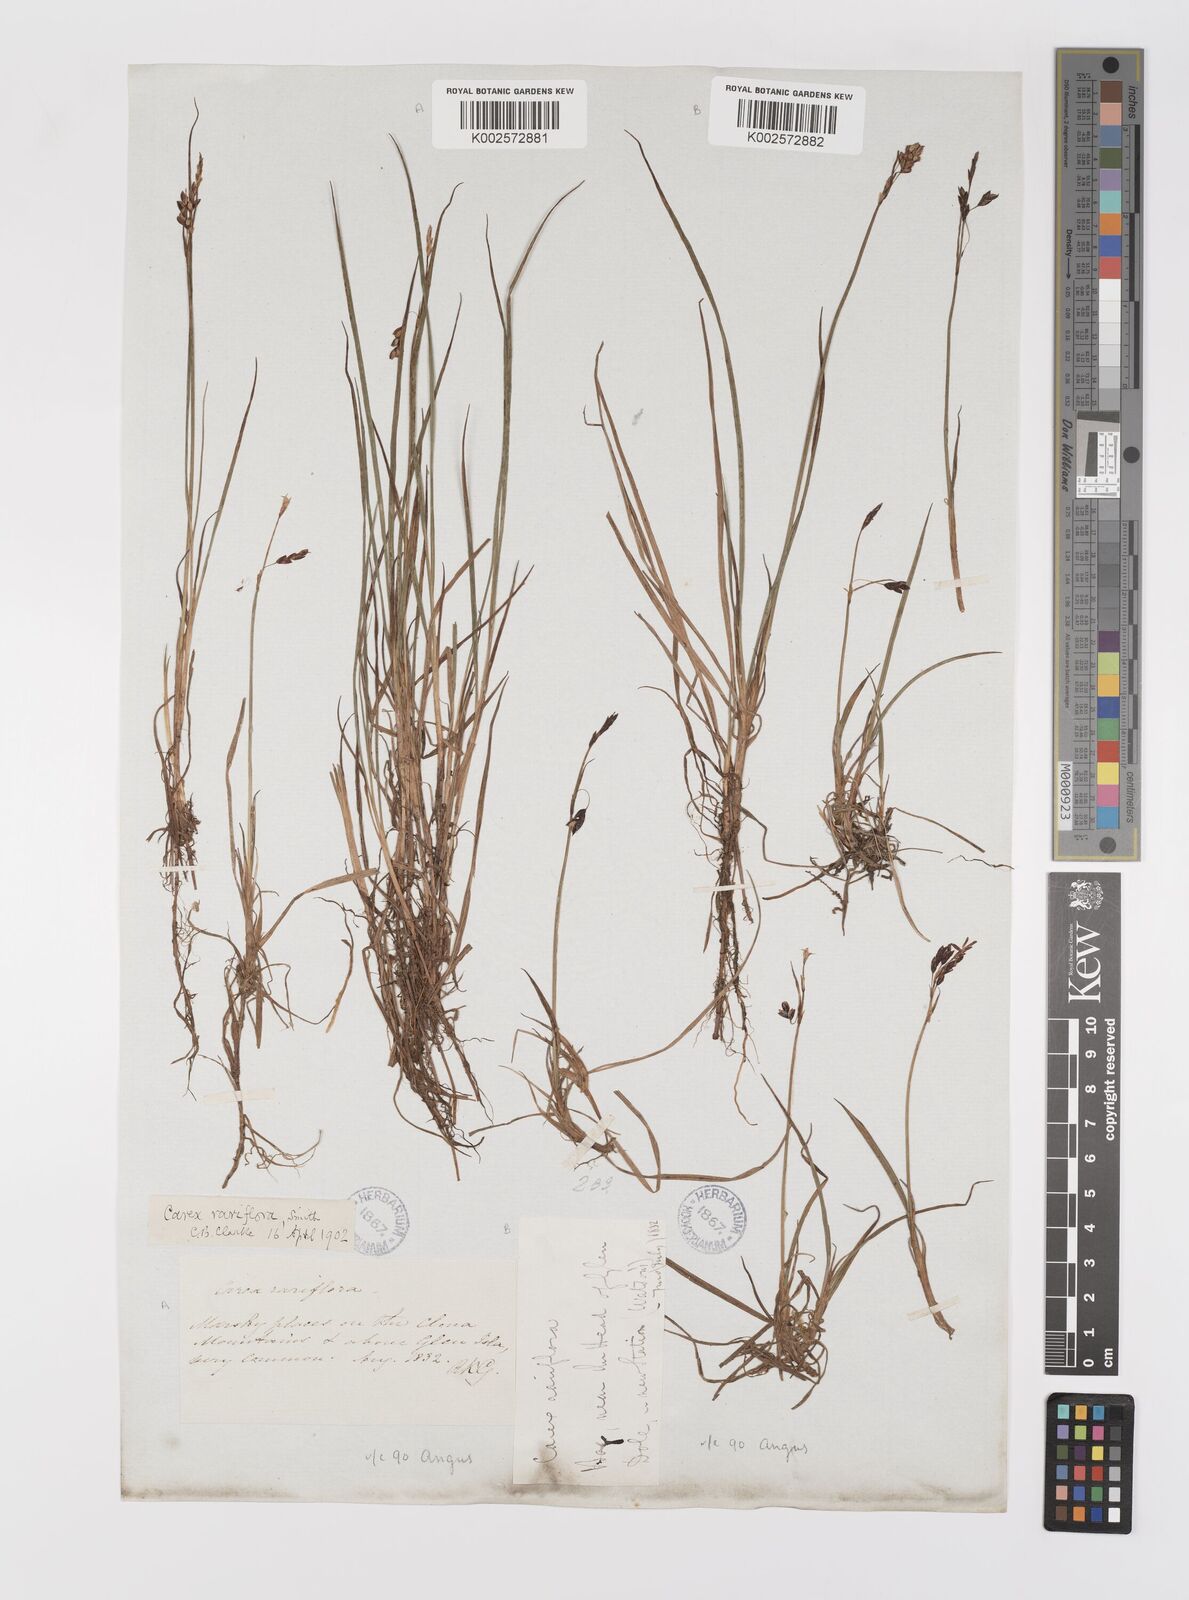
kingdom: Plantae
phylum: Tracheophyta
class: Liliopsida
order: Poales
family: Cyperaceae
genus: Carex
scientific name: Carex rariflora
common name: Loose-flowered alpine sedge
